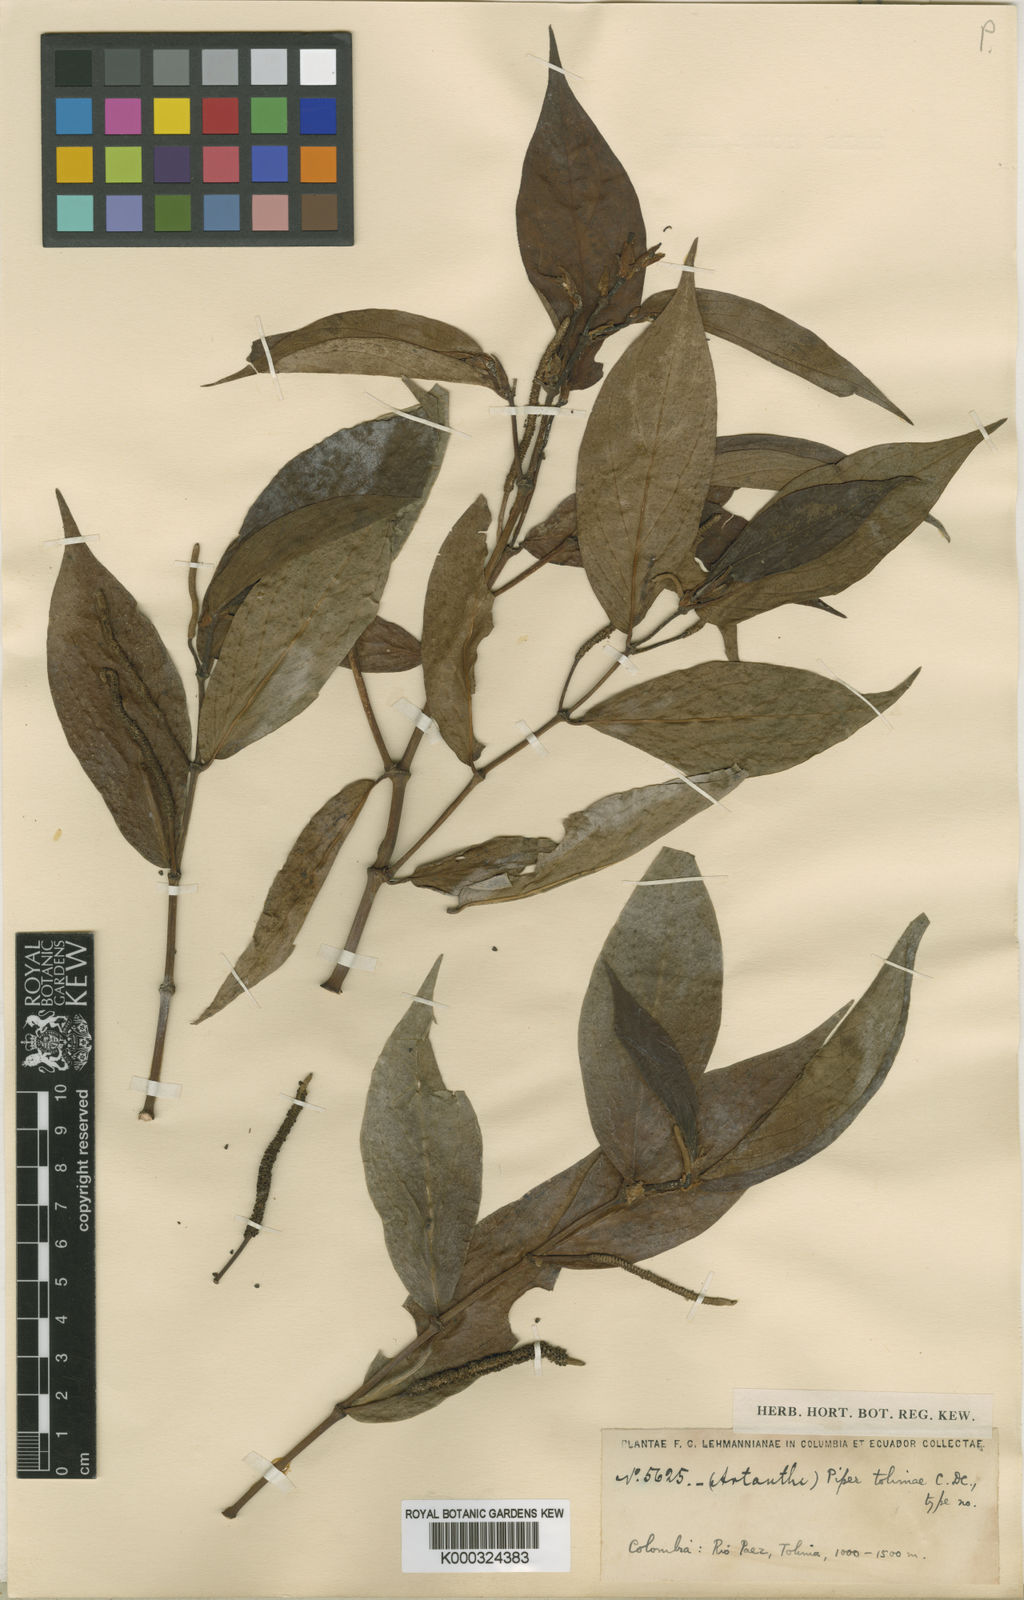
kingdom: Plantae
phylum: Tracheophyta
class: Magnoliopsida
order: Piperales
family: Piperaceae
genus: Piper
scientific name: Piper variegatum
